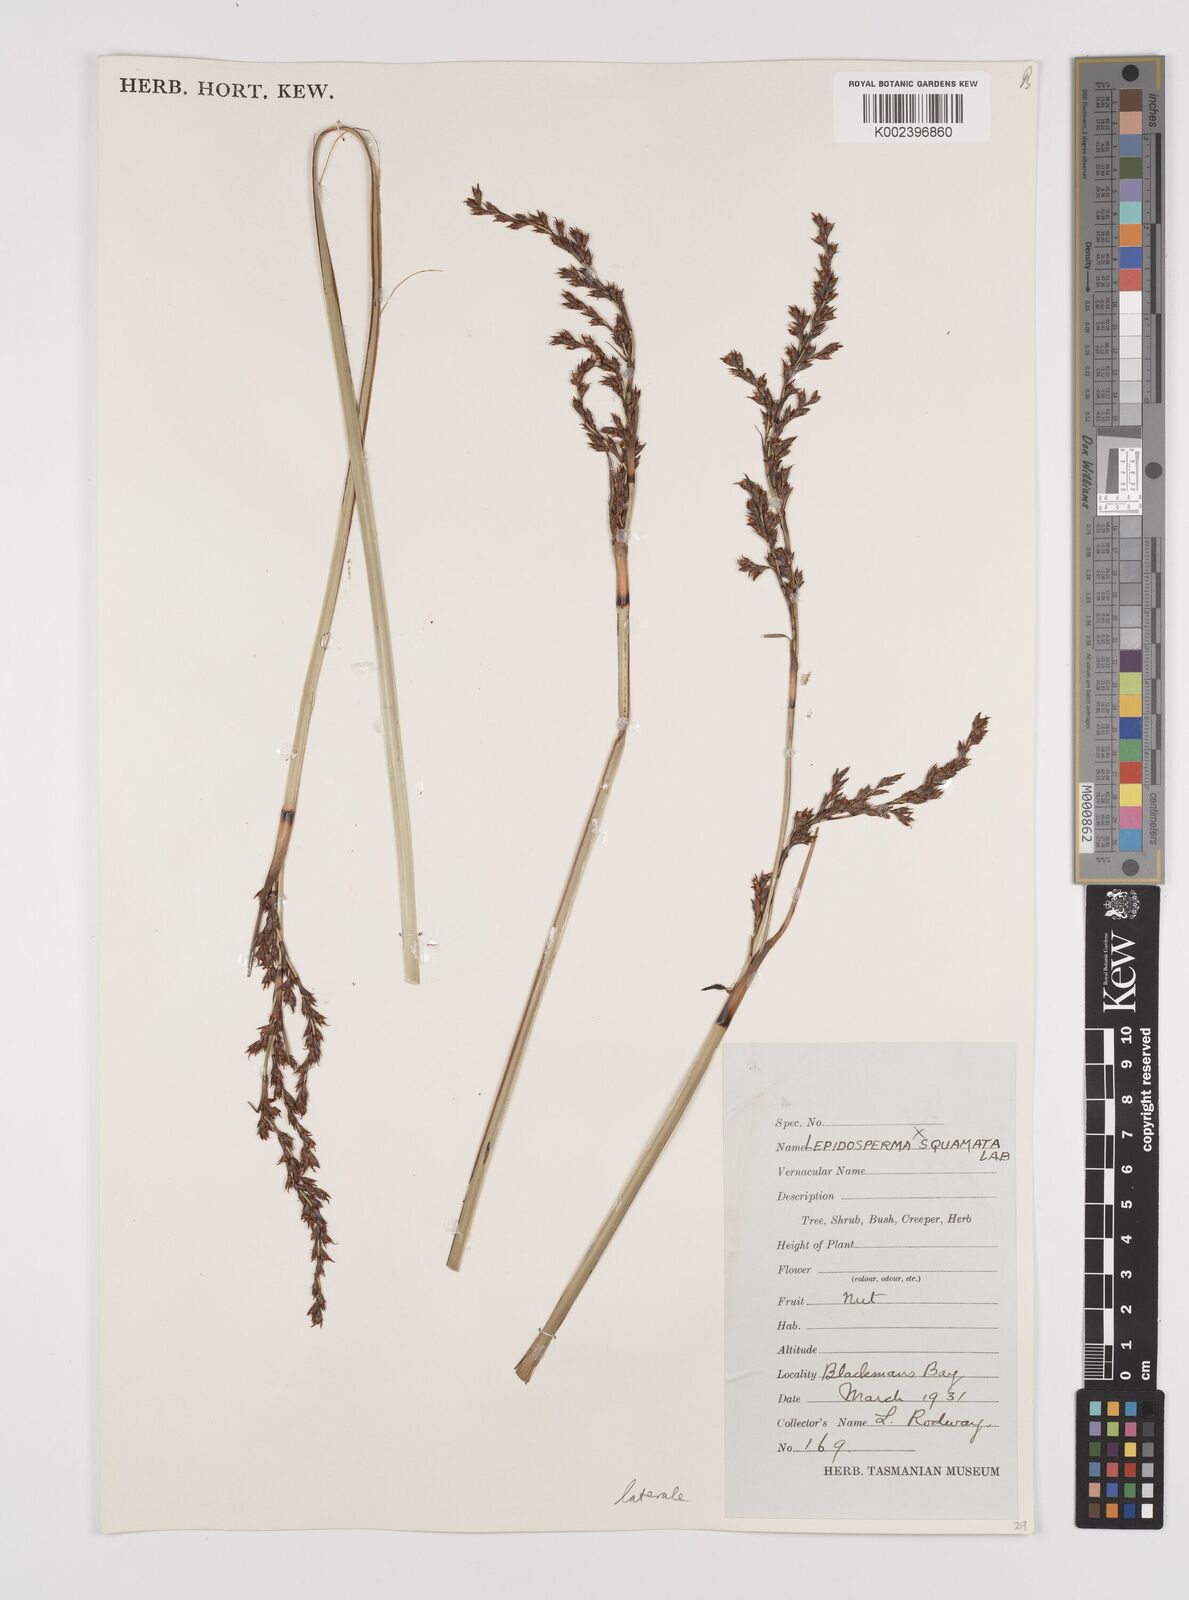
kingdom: Plantae
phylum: Tracheophyta
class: Liliopsida
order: Poales
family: Cyperaceae
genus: Lepidosperma
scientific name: Lepidosperma laterale
